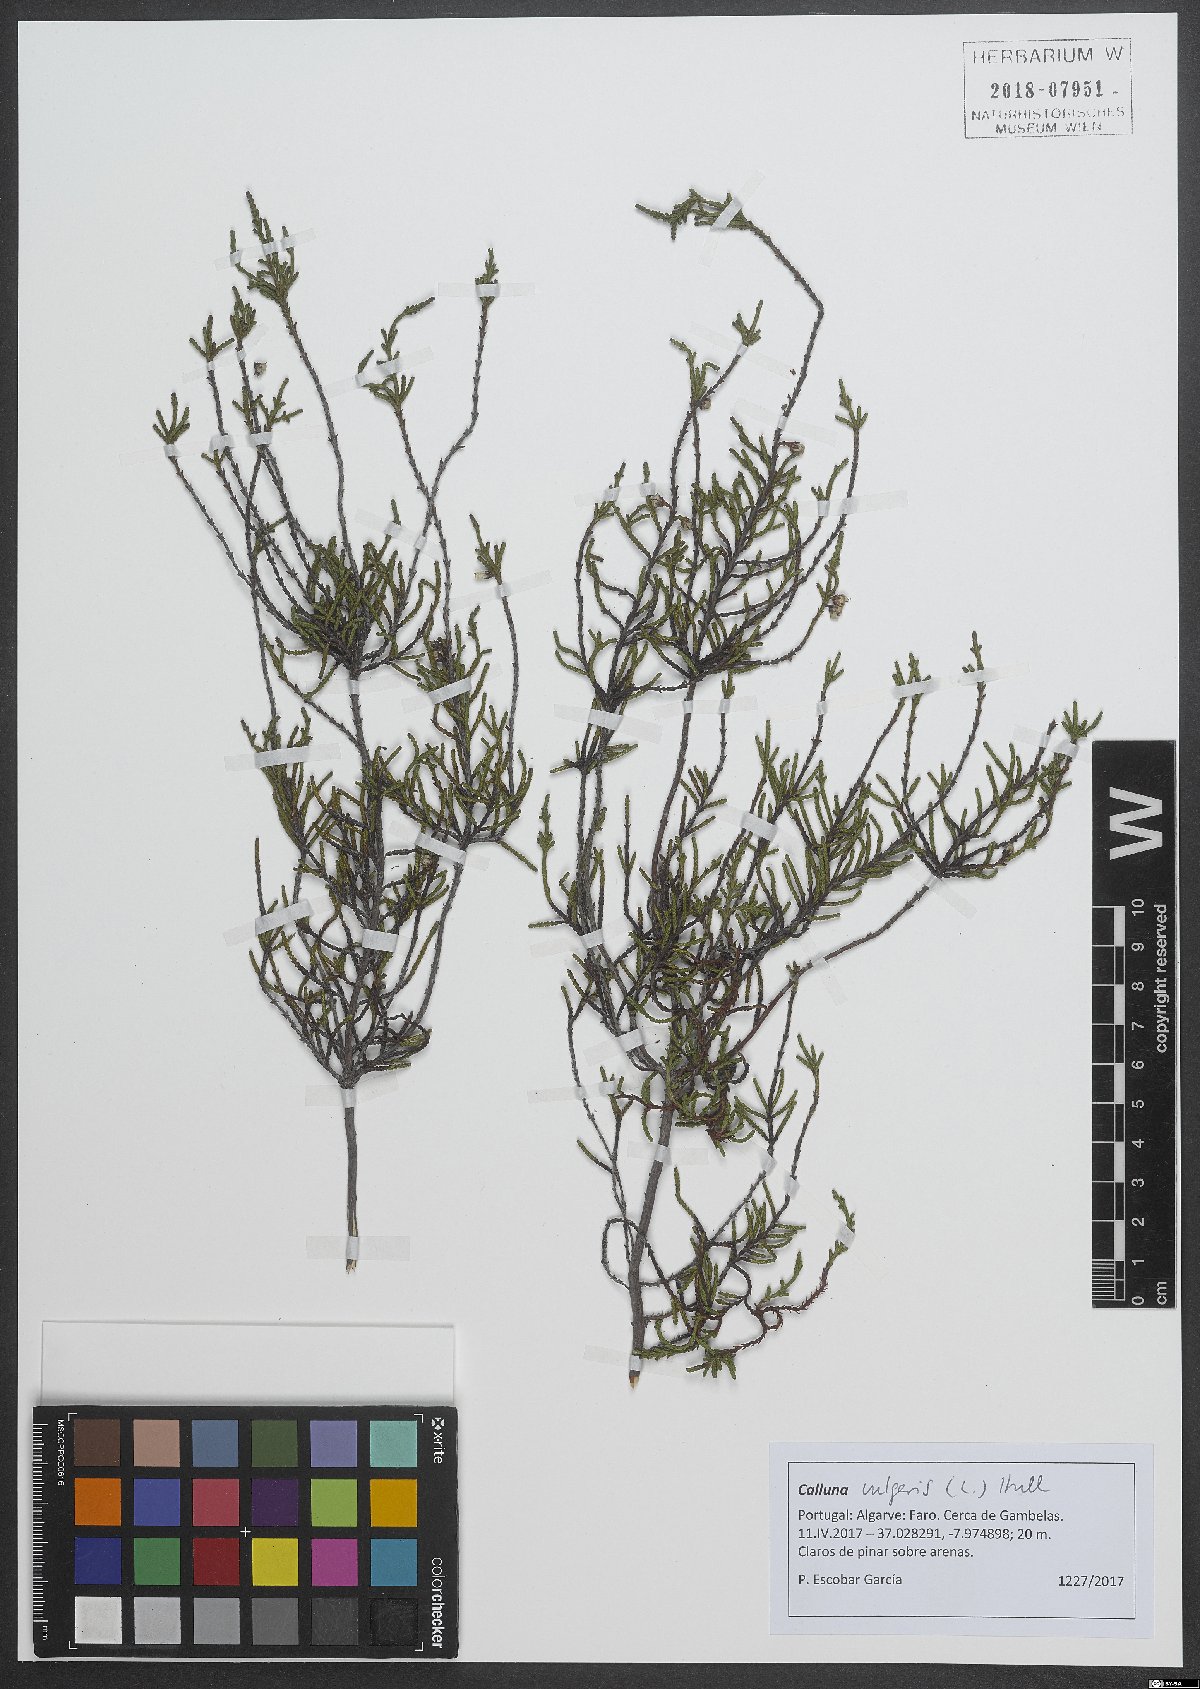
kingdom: Plantae
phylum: Tracheophyta
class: Magnoliopsida
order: Ericales
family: Ericaceae
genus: Calluna
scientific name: Calluna vulgaris
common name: Heather
